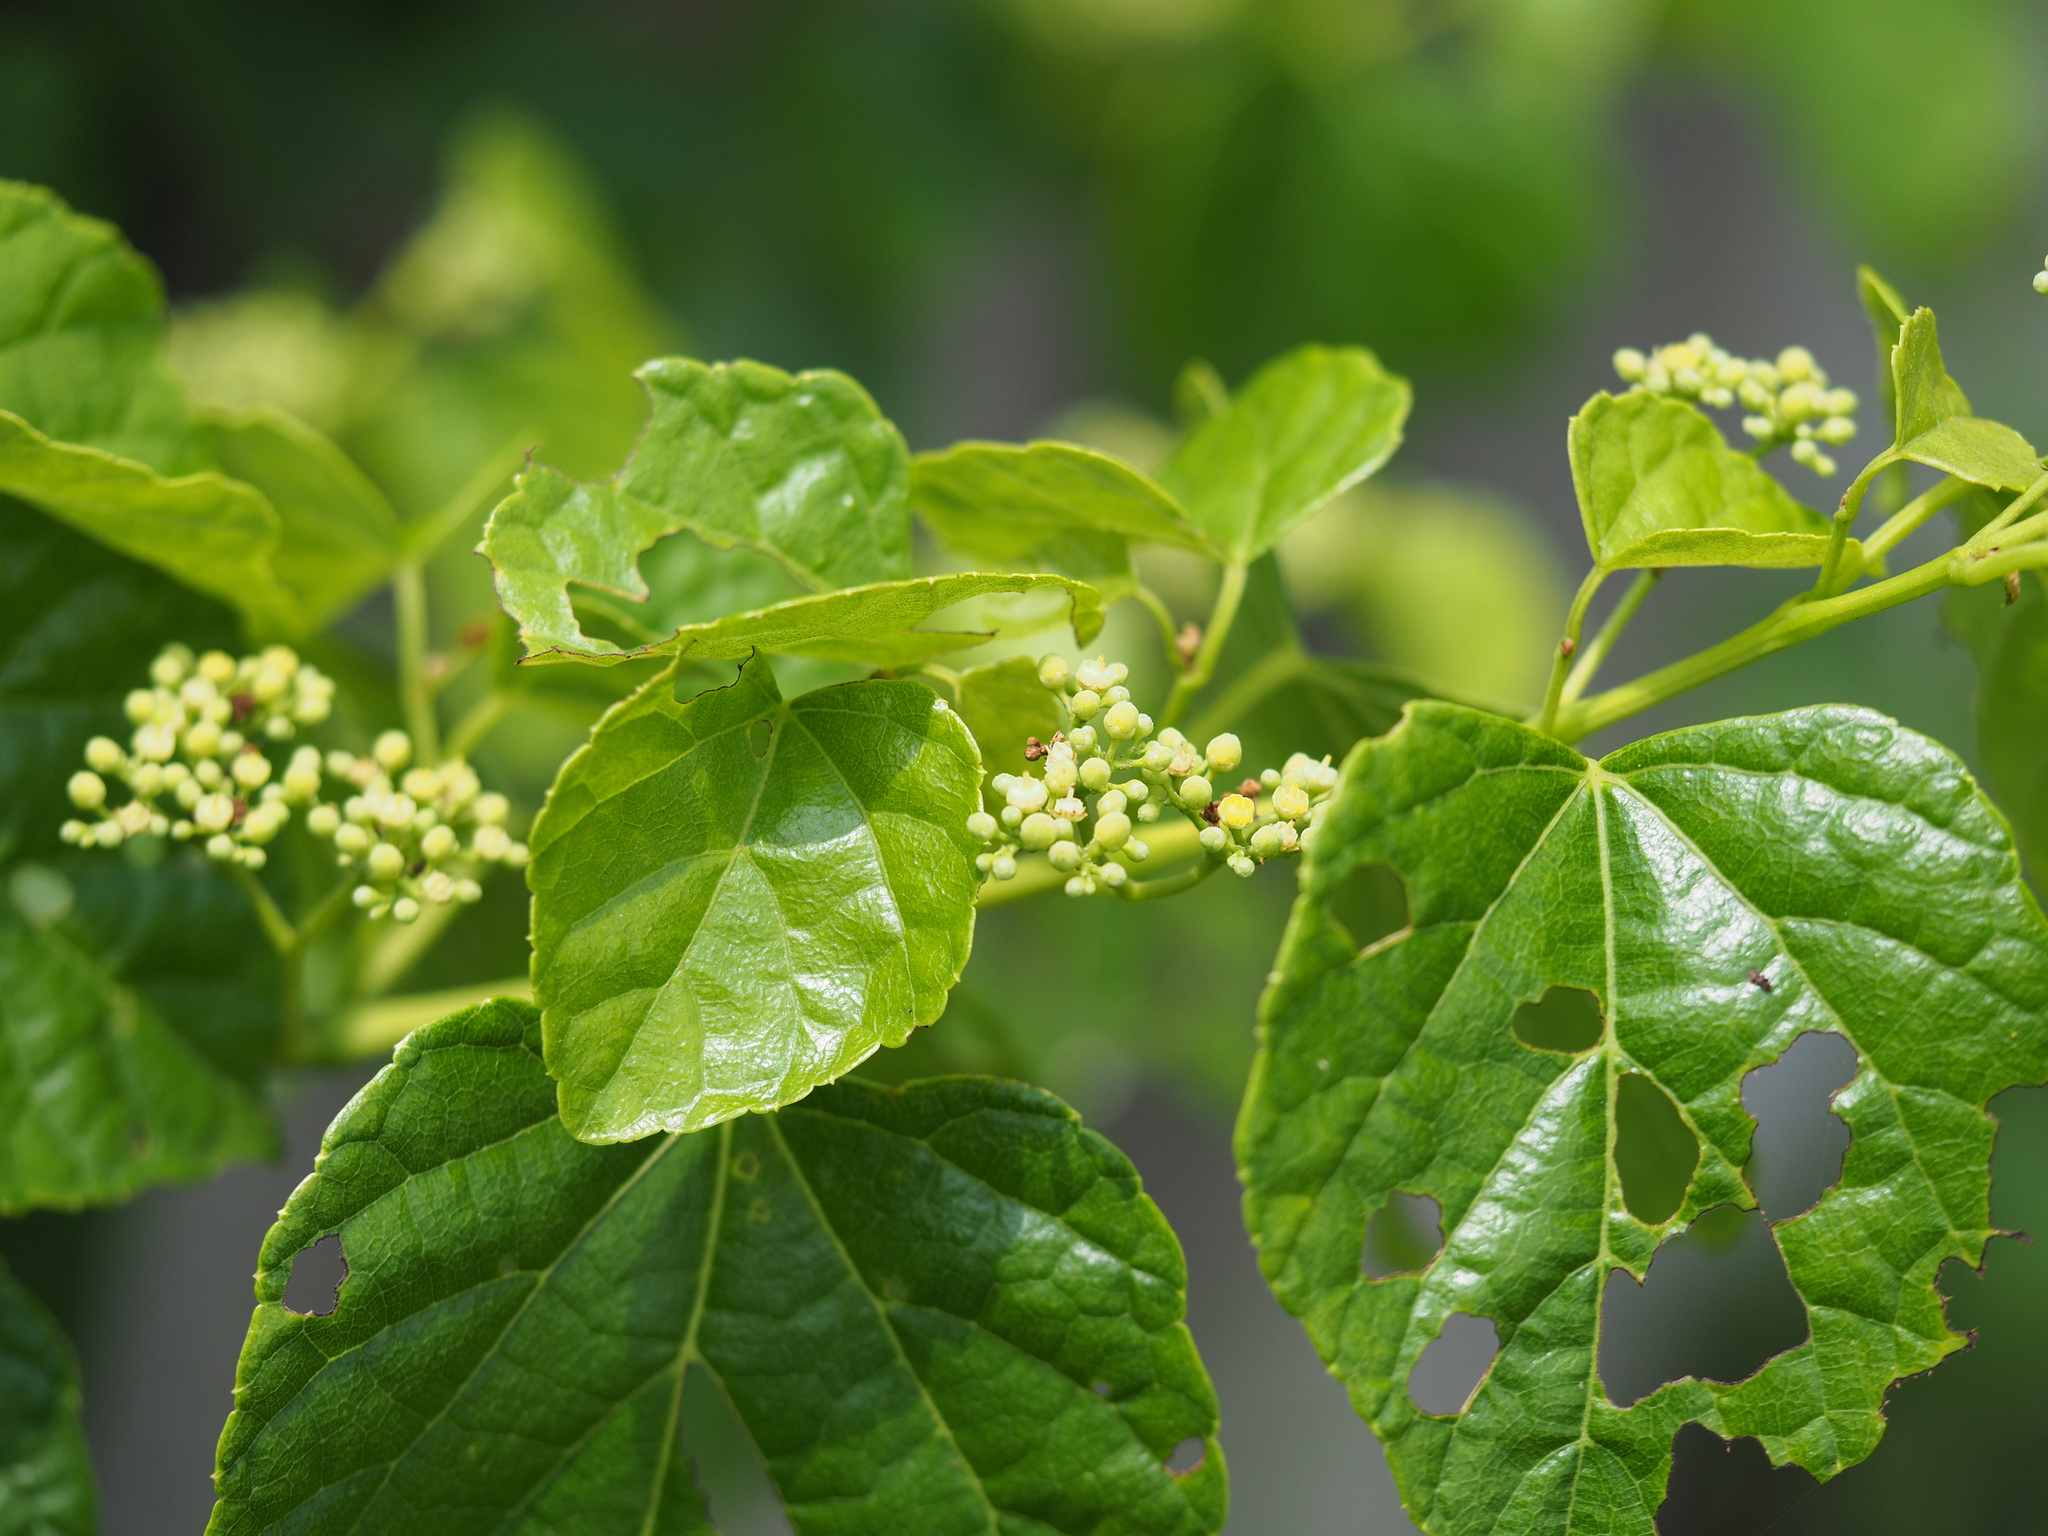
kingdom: Plantae
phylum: Tracheophyta
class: Magnoliopsida
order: Vitales
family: Vitaceae
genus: Ampelopsis
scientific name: Ampelopsis glandulosa
